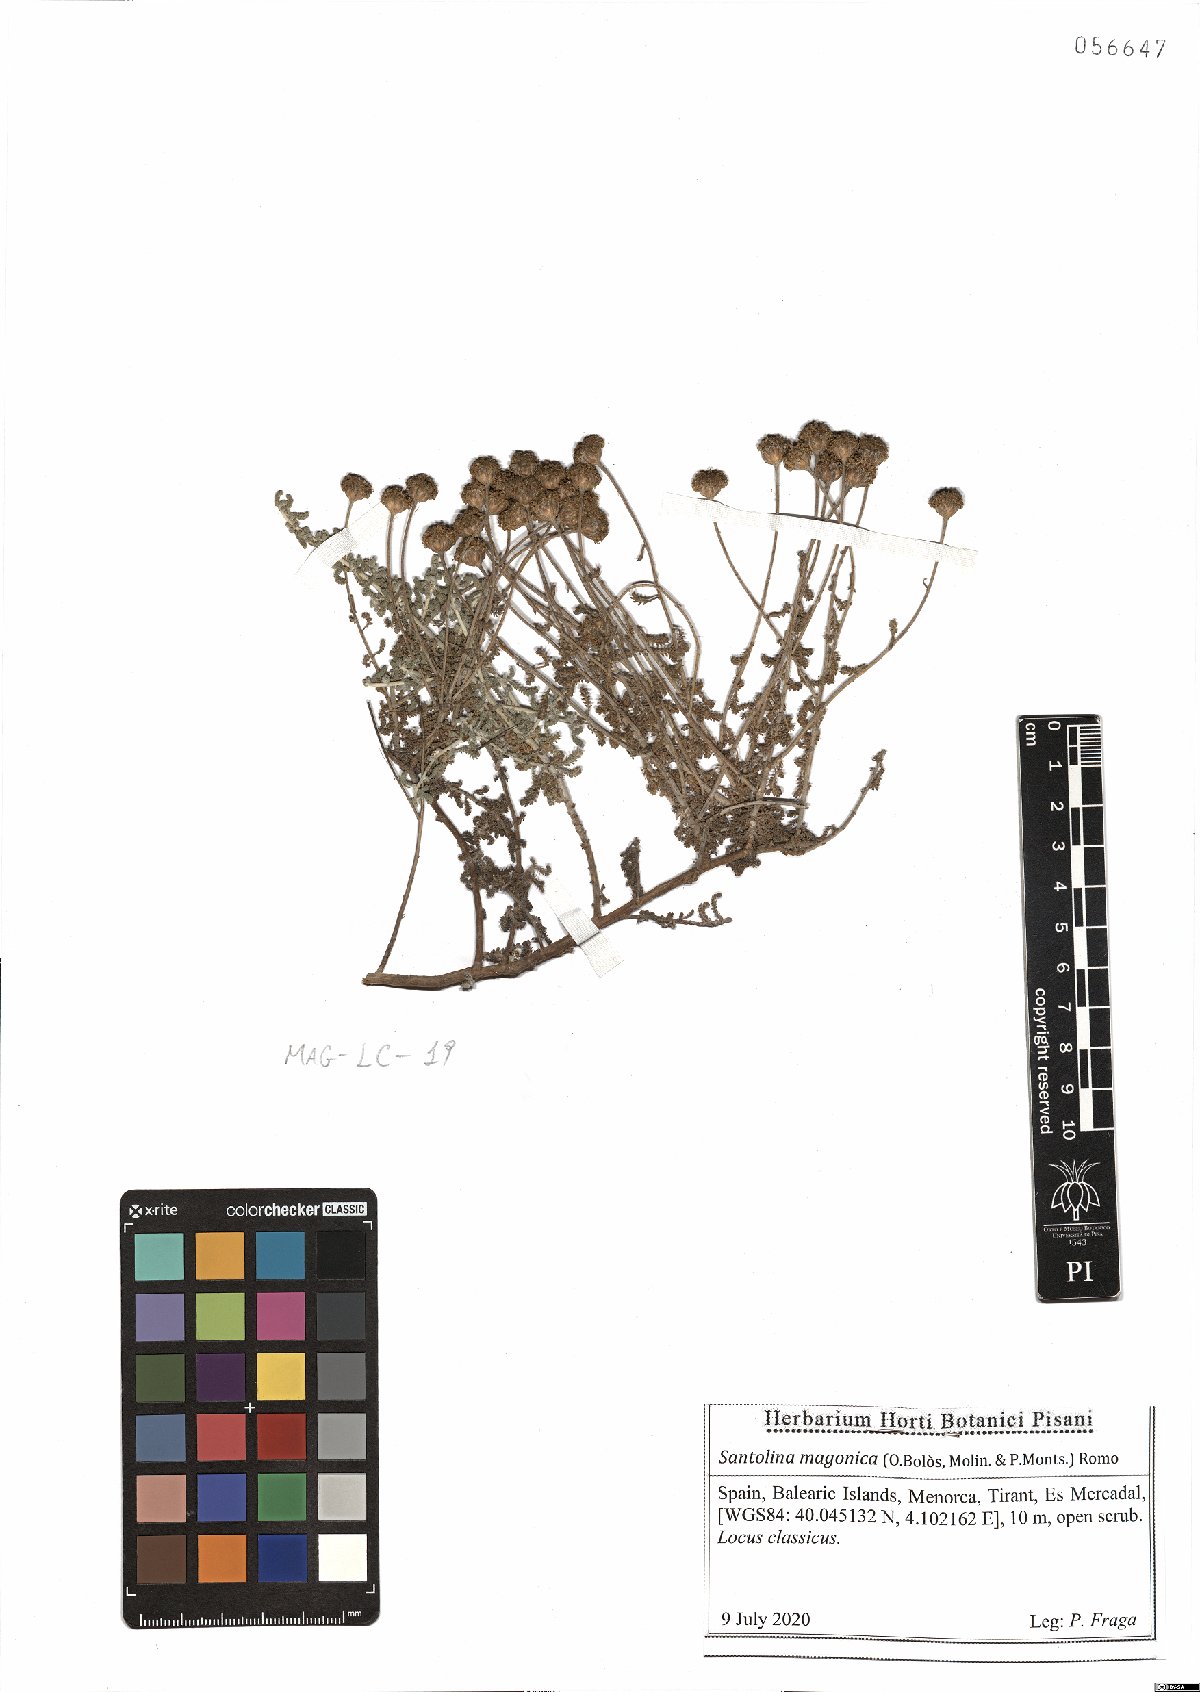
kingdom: Plantae
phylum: Tracheophyta
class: Magnoliopsida
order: Asterales
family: Asteraceae
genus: Santolina
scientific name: Santolina magonica
